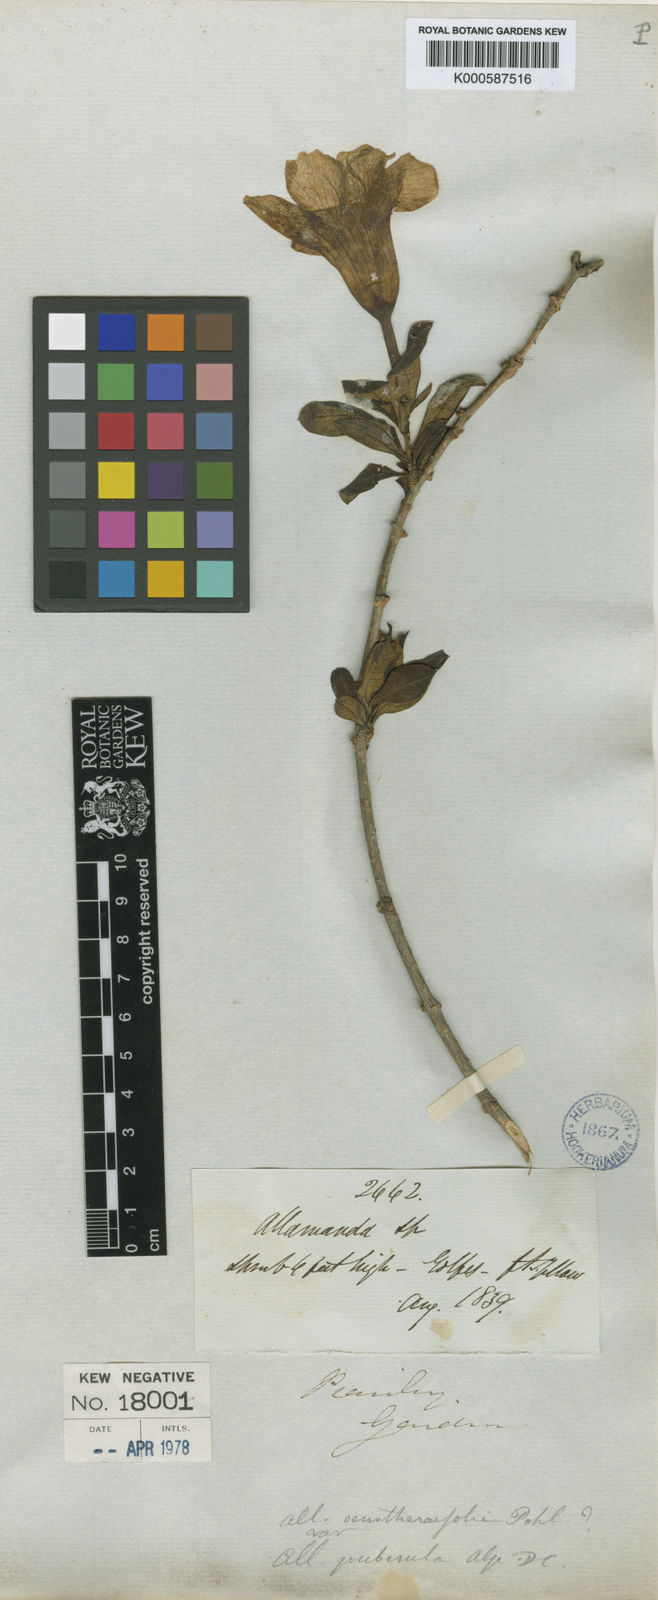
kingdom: Plantae
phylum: Tracheophyta
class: Magnoliopsida
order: Gentianales
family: Apocynaceae
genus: Allamanda
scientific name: Allamanda puberula
